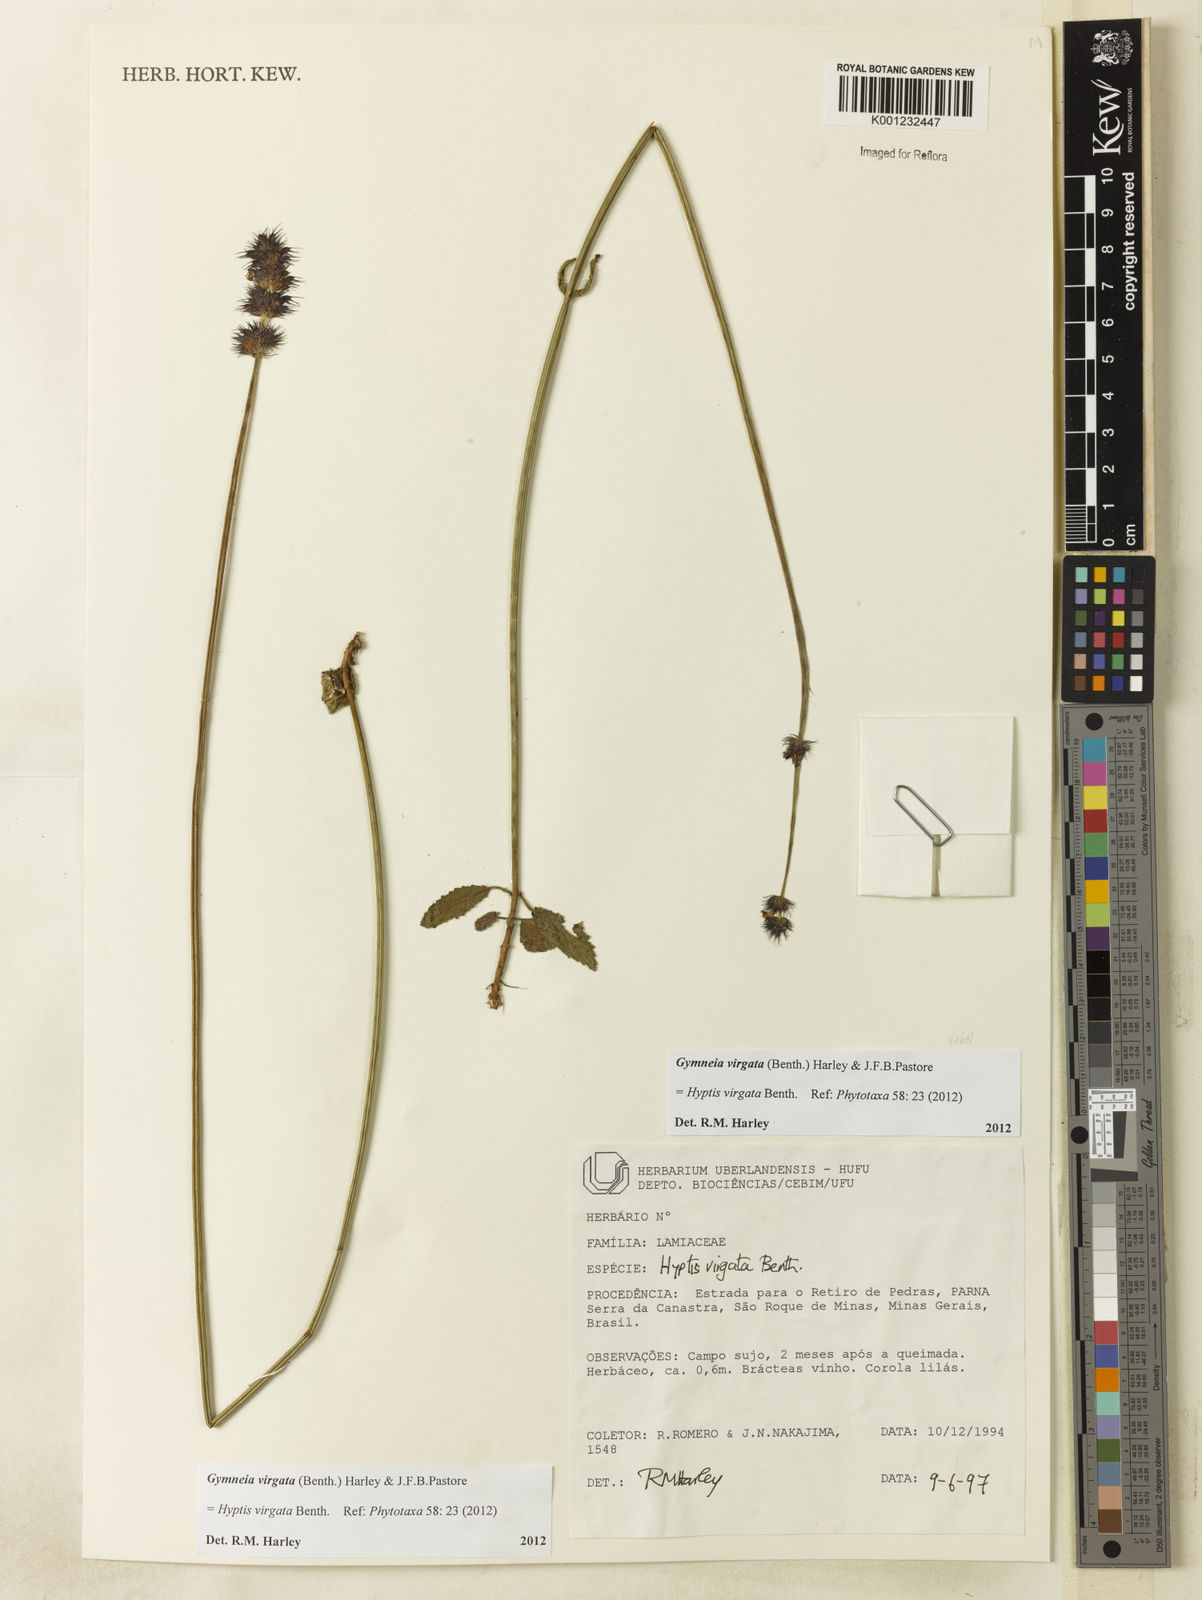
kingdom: Plantae
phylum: Tracheophyta
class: Magnoliopsida
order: Lamiales
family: Lamiaceae
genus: Gymneia
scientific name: Gymneia virgata
